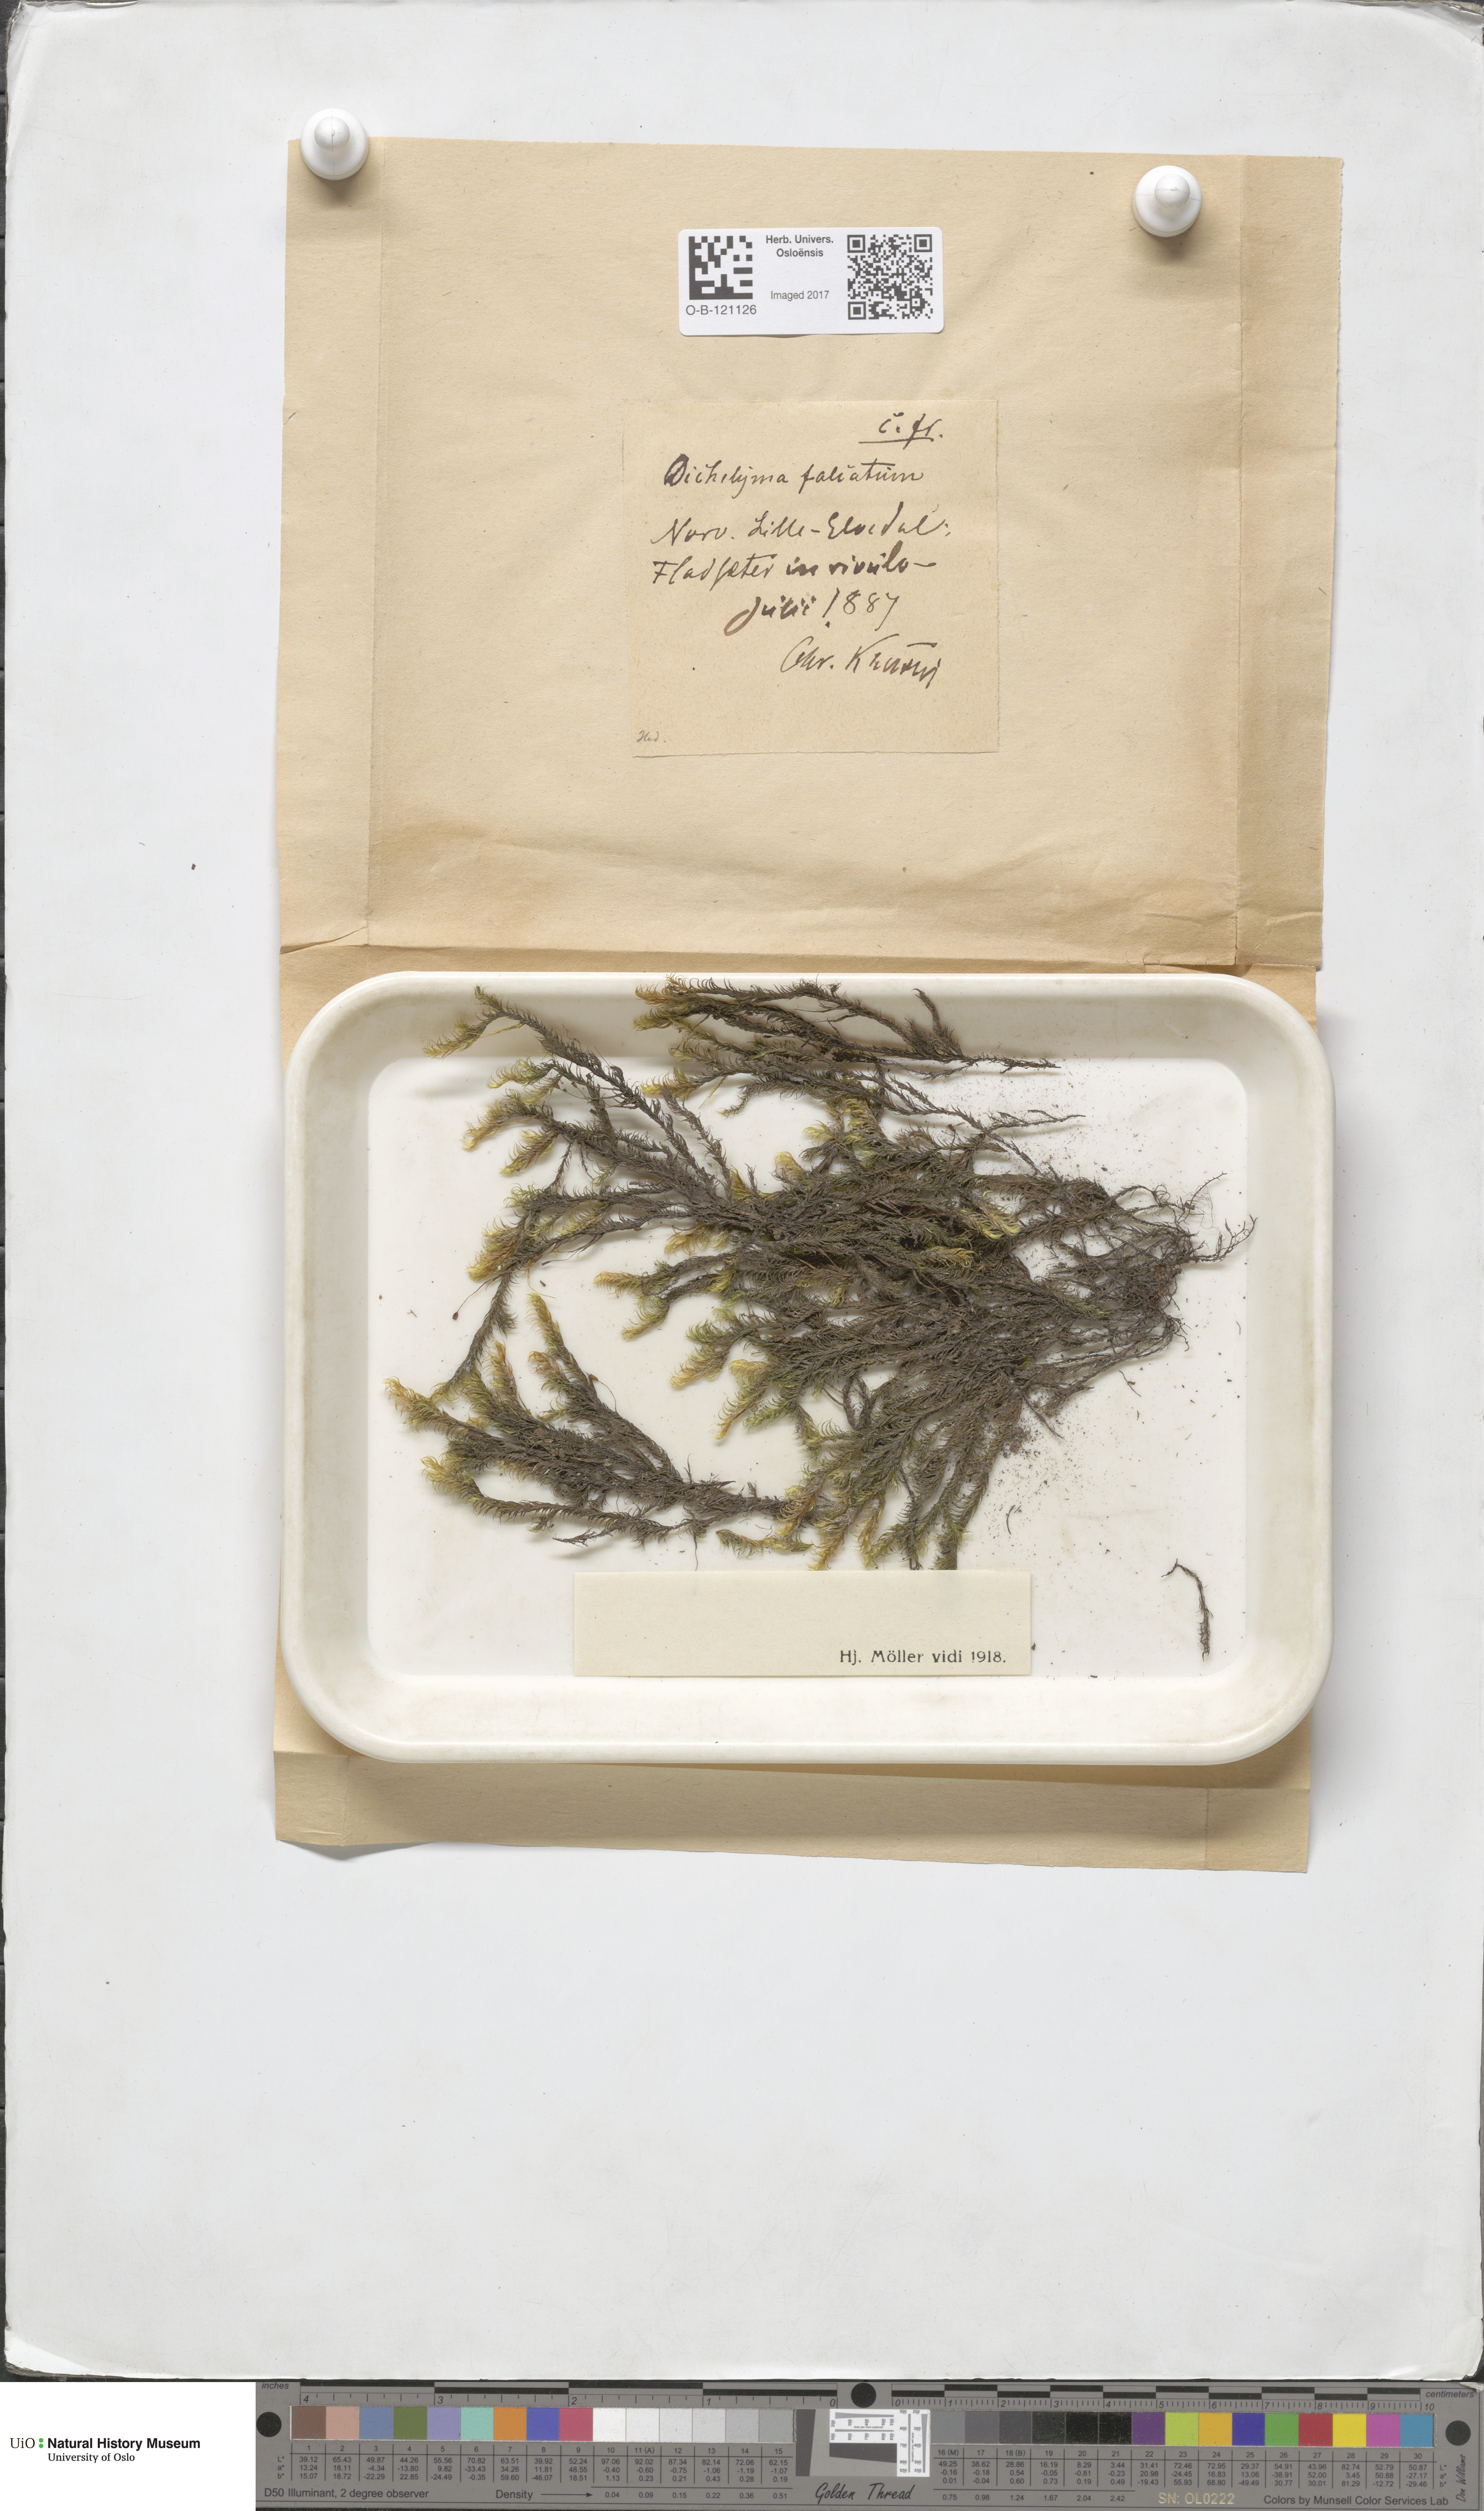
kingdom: Plantae
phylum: Bryophyta
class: Bryopsida
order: Hypnales
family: Fontinalaceae
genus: Dichelyma
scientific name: Dichelyma falcatum
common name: Lance-leaved claw moss
